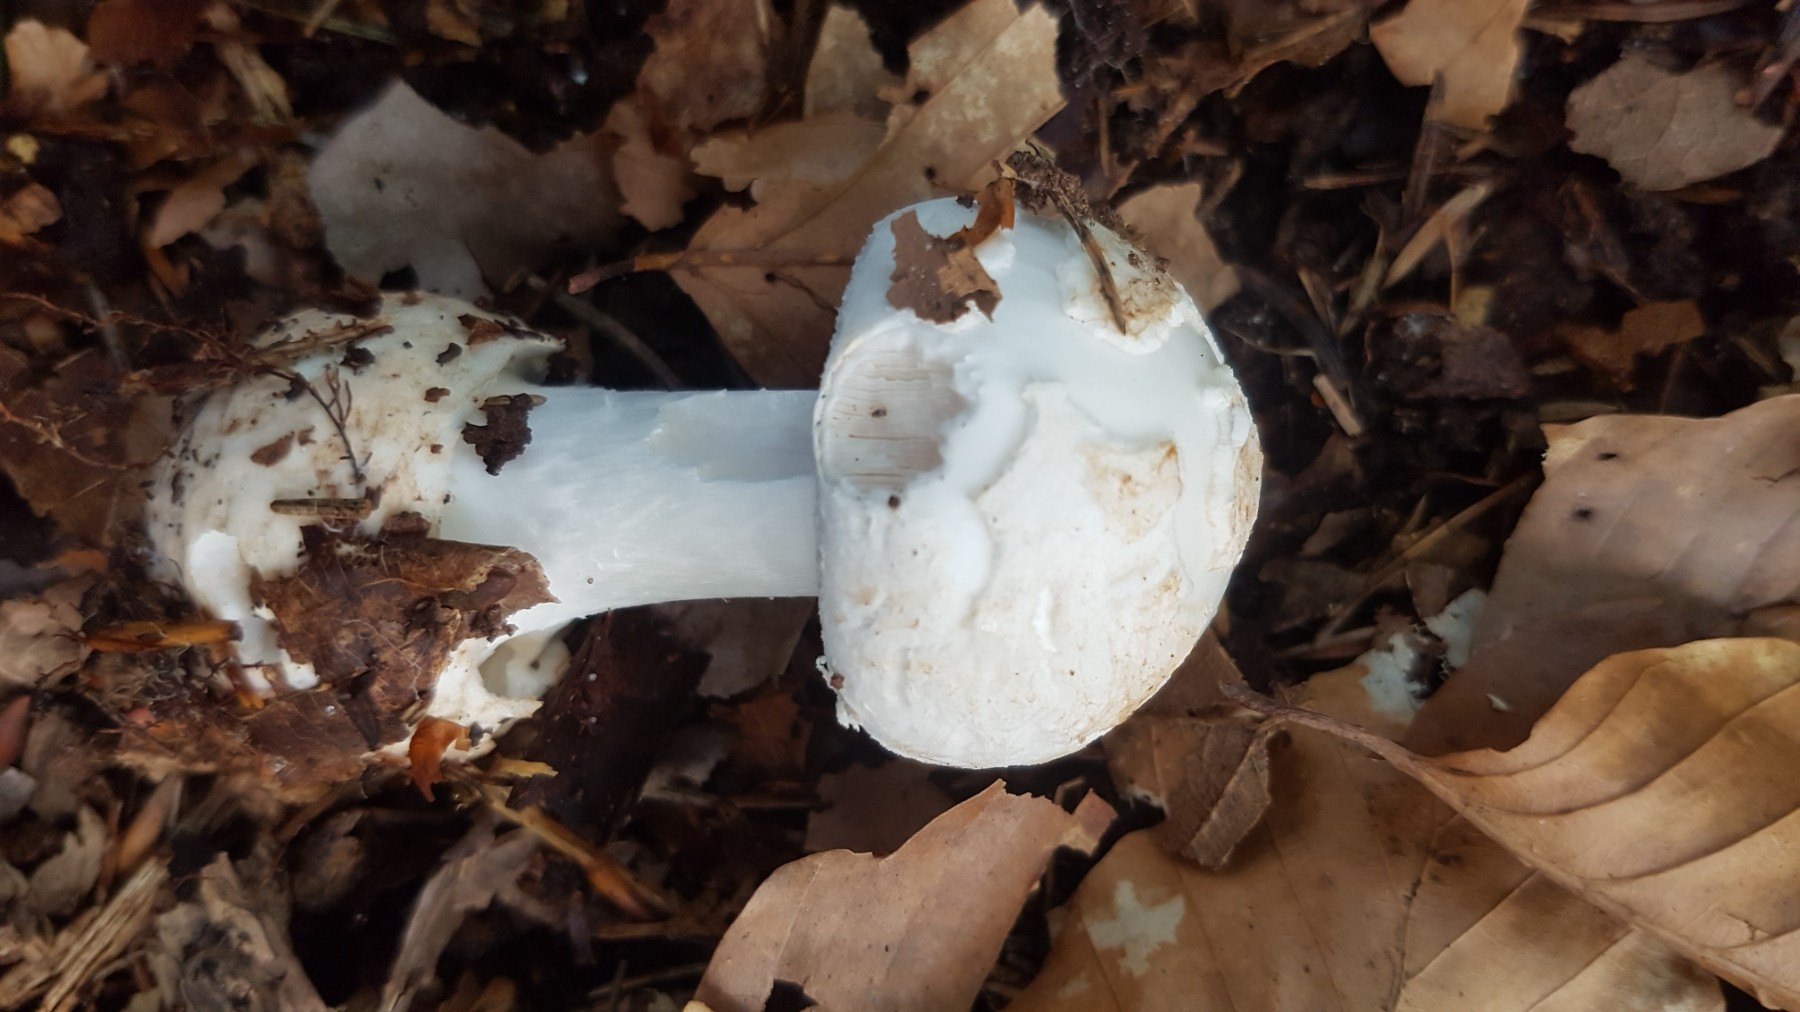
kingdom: Fungi
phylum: Basidiomycota
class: Agaricomycetes
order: Agaricales
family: Amanitaceae
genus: Amanita
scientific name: Amanita citrina
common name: kugleknoldet fluesvamp
